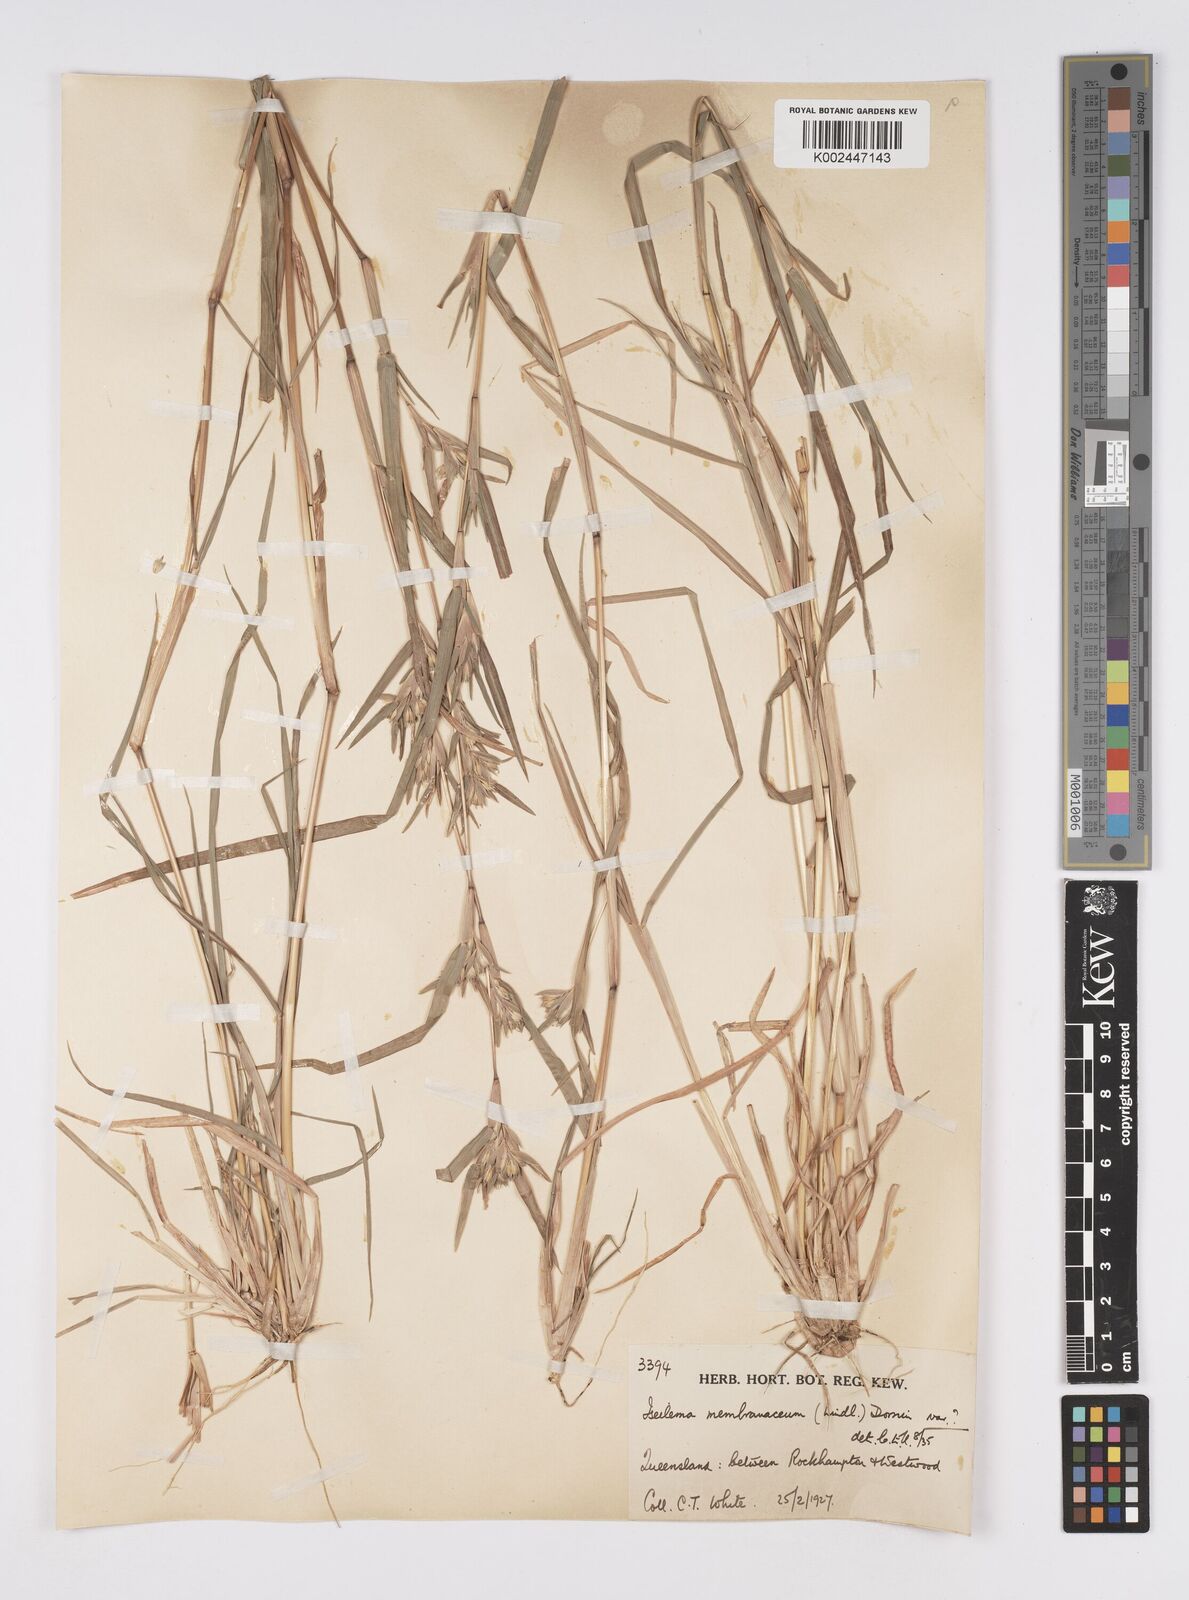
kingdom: Plantae
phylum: Tracheophyta
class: Liliopsida
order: Poales
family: Poaceae
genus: Iseilema
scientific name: Iseilema membranaceum
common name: Small flinders grass
